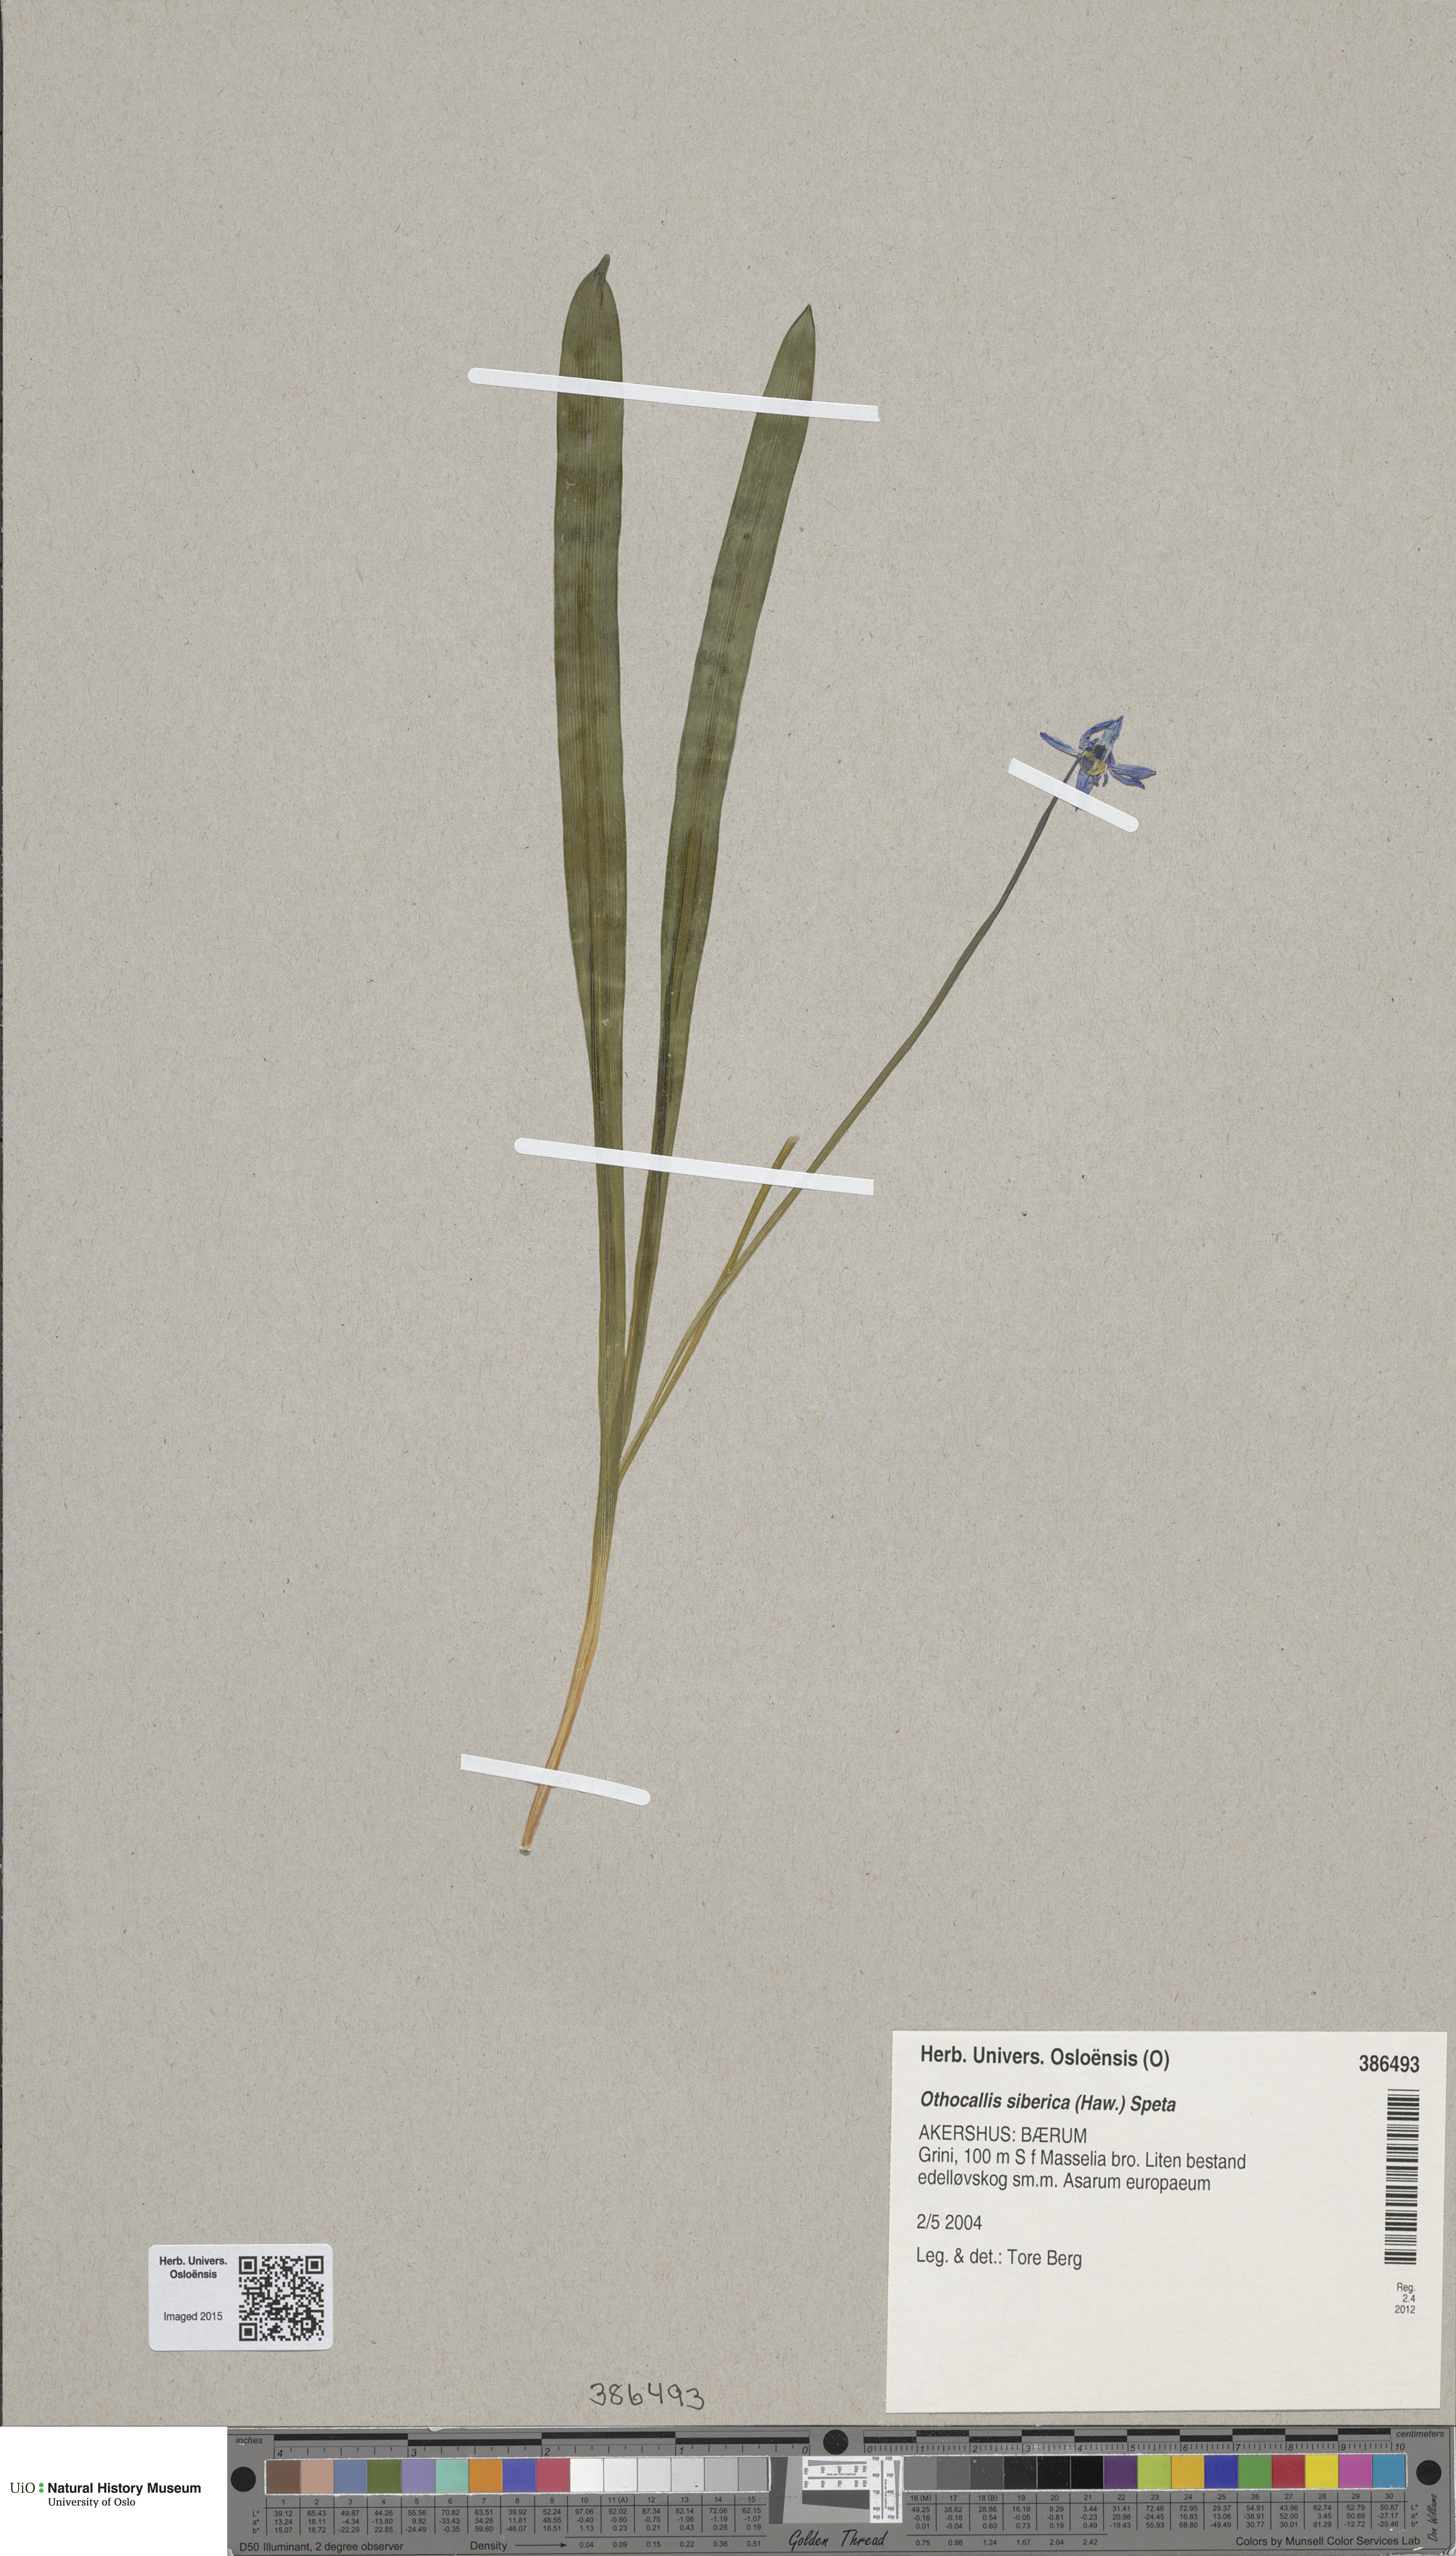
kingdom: Plantae
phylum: Tracheophyta
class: Liliopsida
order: Asparagales
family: Asparagaceae
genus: Scilla
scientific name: Scilla siberica
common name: Siberian squill
